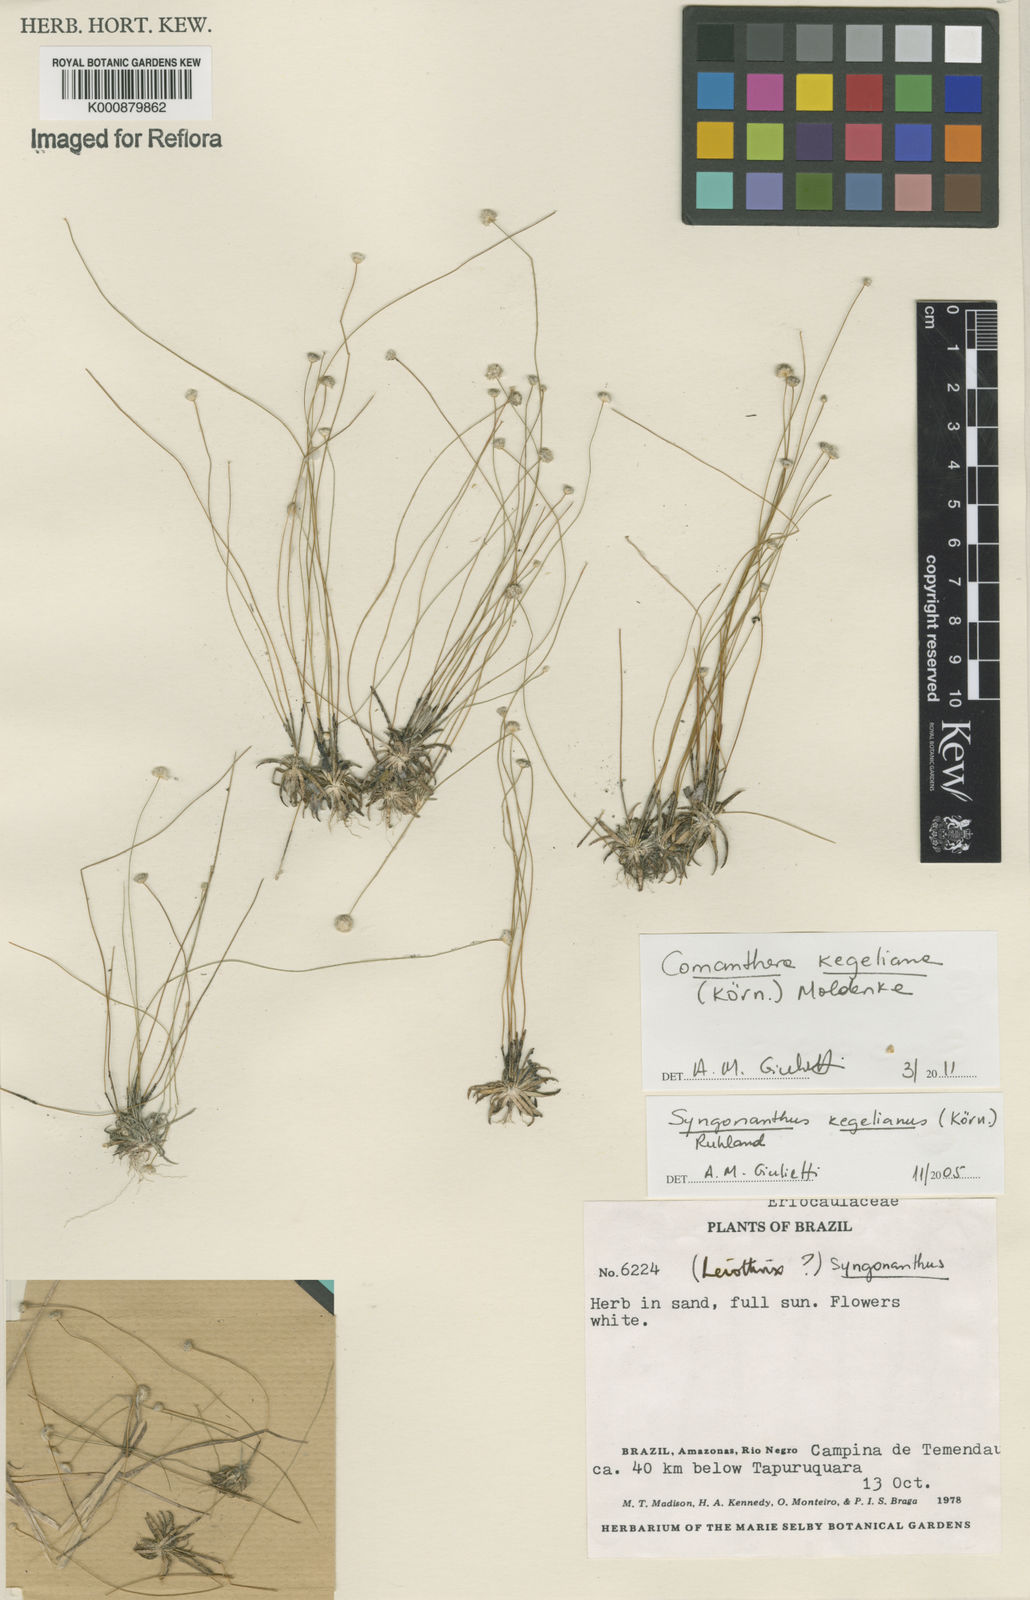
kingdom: Plantae
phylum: Tracheophyta
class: Liliopsida
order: Poales
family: Eriocaulaceae
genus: Comanthera
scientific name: Comanthera
